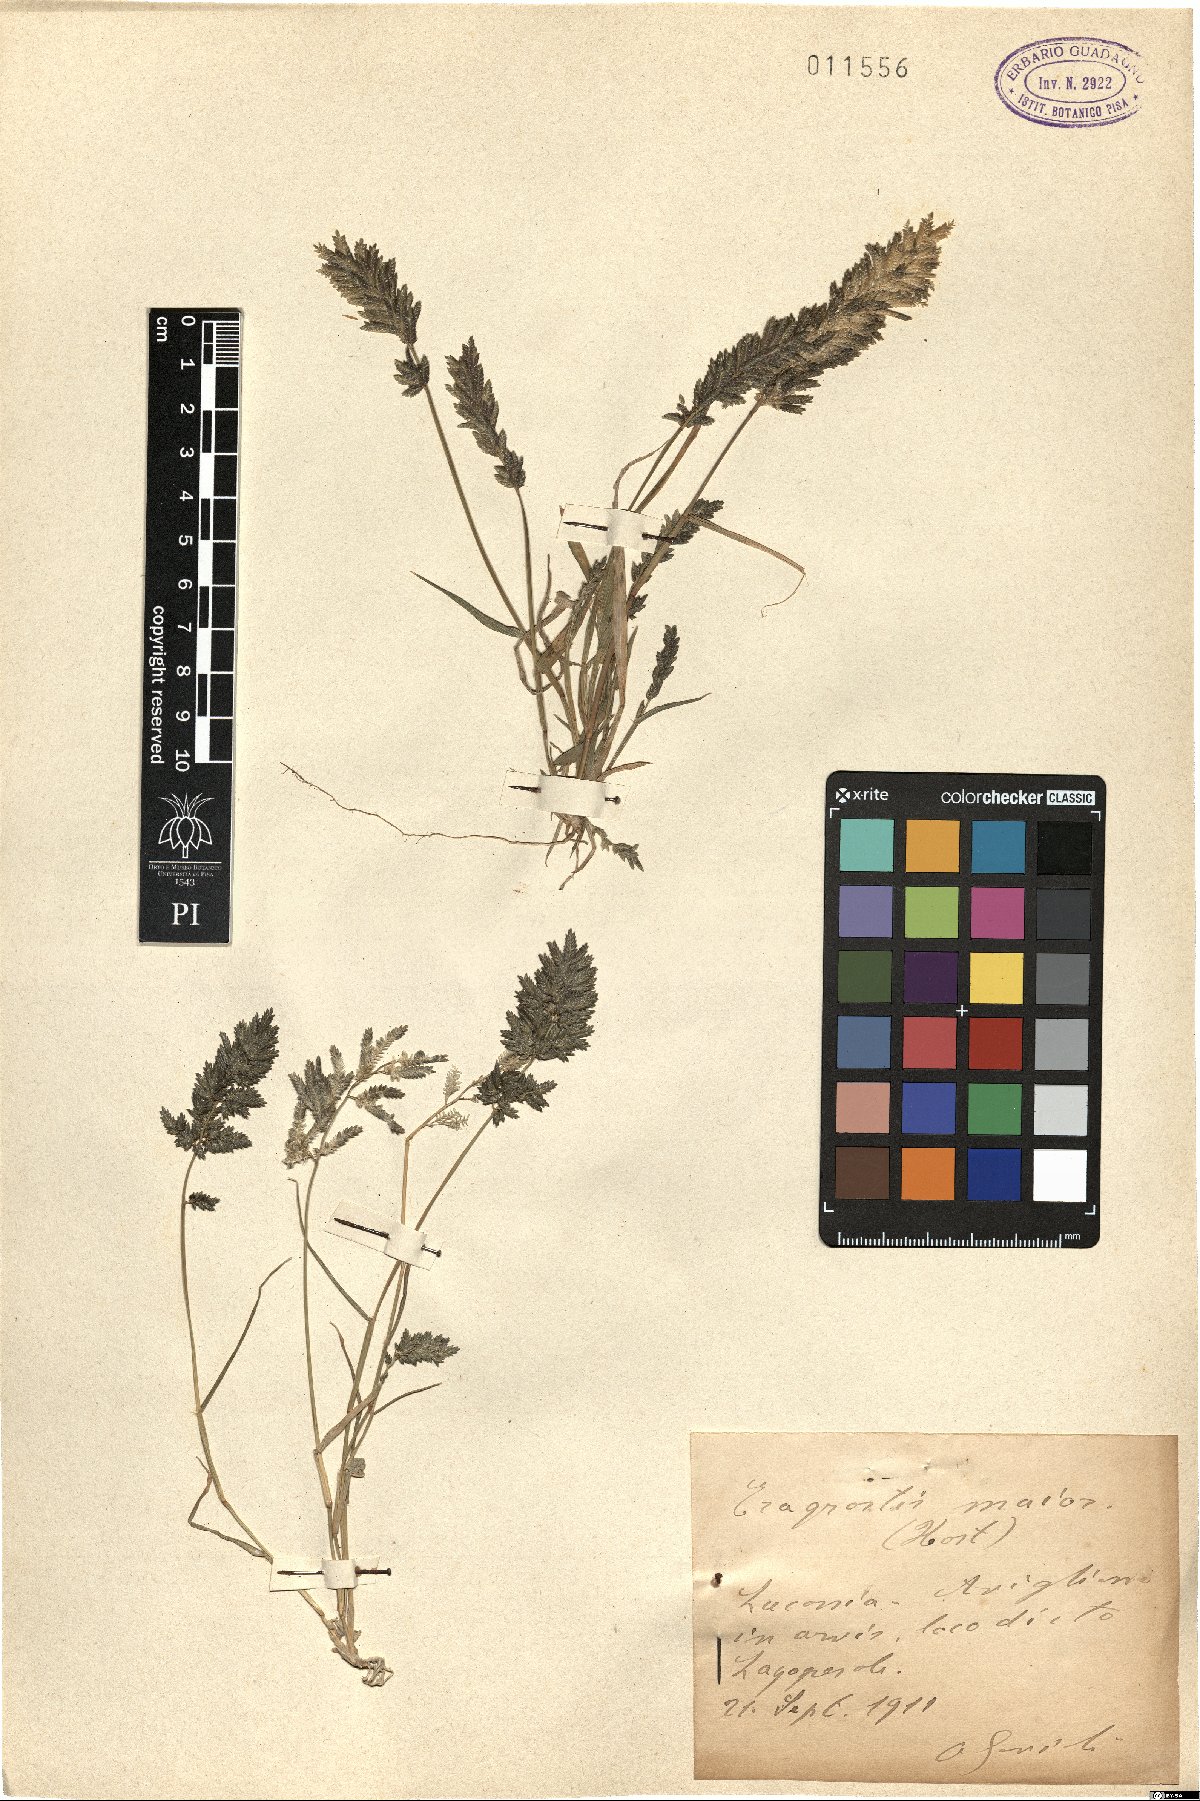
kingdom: Plantae
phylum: Tracheophyta
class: Liliopsida
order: Poales
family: Poaceae
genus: Eragrostis
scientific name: Eragrostis cilianensis
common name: Stinkgrass
